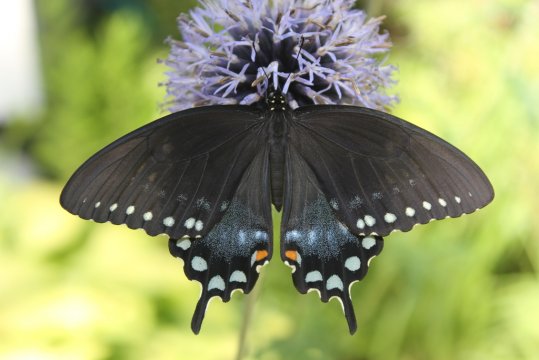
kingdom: Animalia
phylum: Arthropoda
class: Insecta
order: Lepidoptera
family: Papilionidae
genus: Pterourus
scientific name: Pterourus troilus
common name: Spicebush Swallowtail
